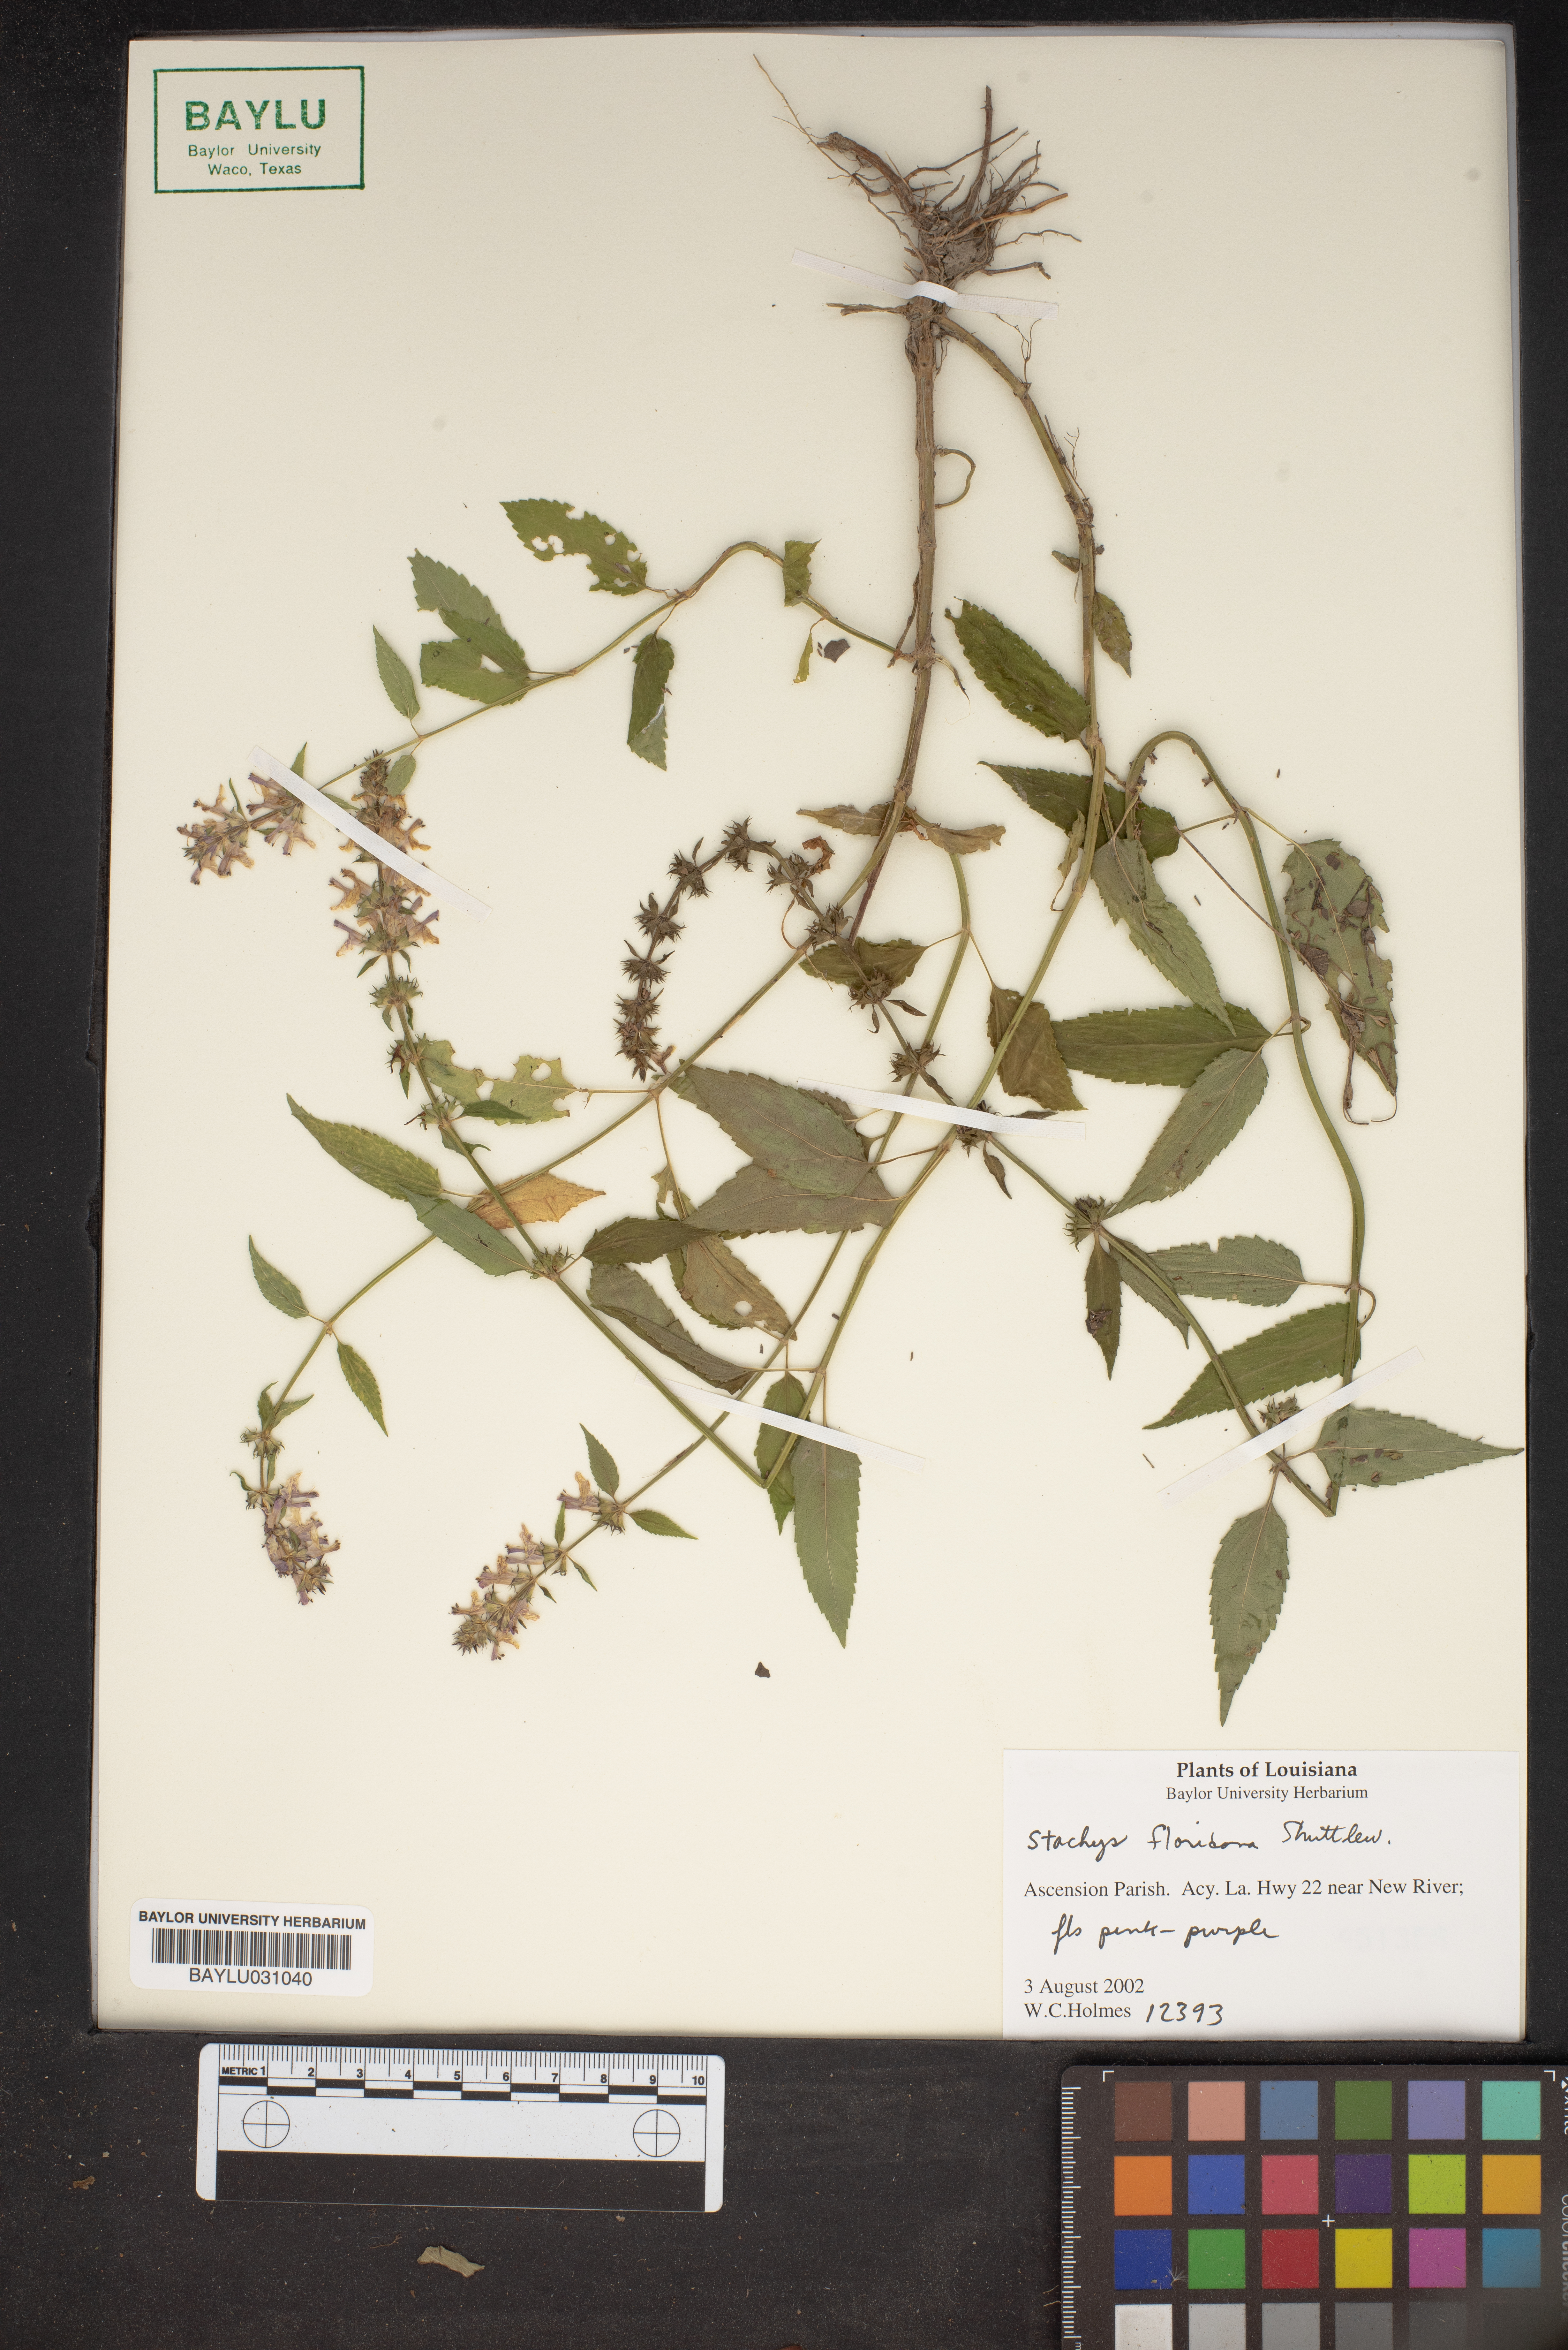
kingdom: Plantae
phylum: Tracheophyta
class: Magnoliopsida
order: Lamiales
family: Lamiaceae
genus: Stachys
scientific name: Stachys floridana
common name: Florida betony
